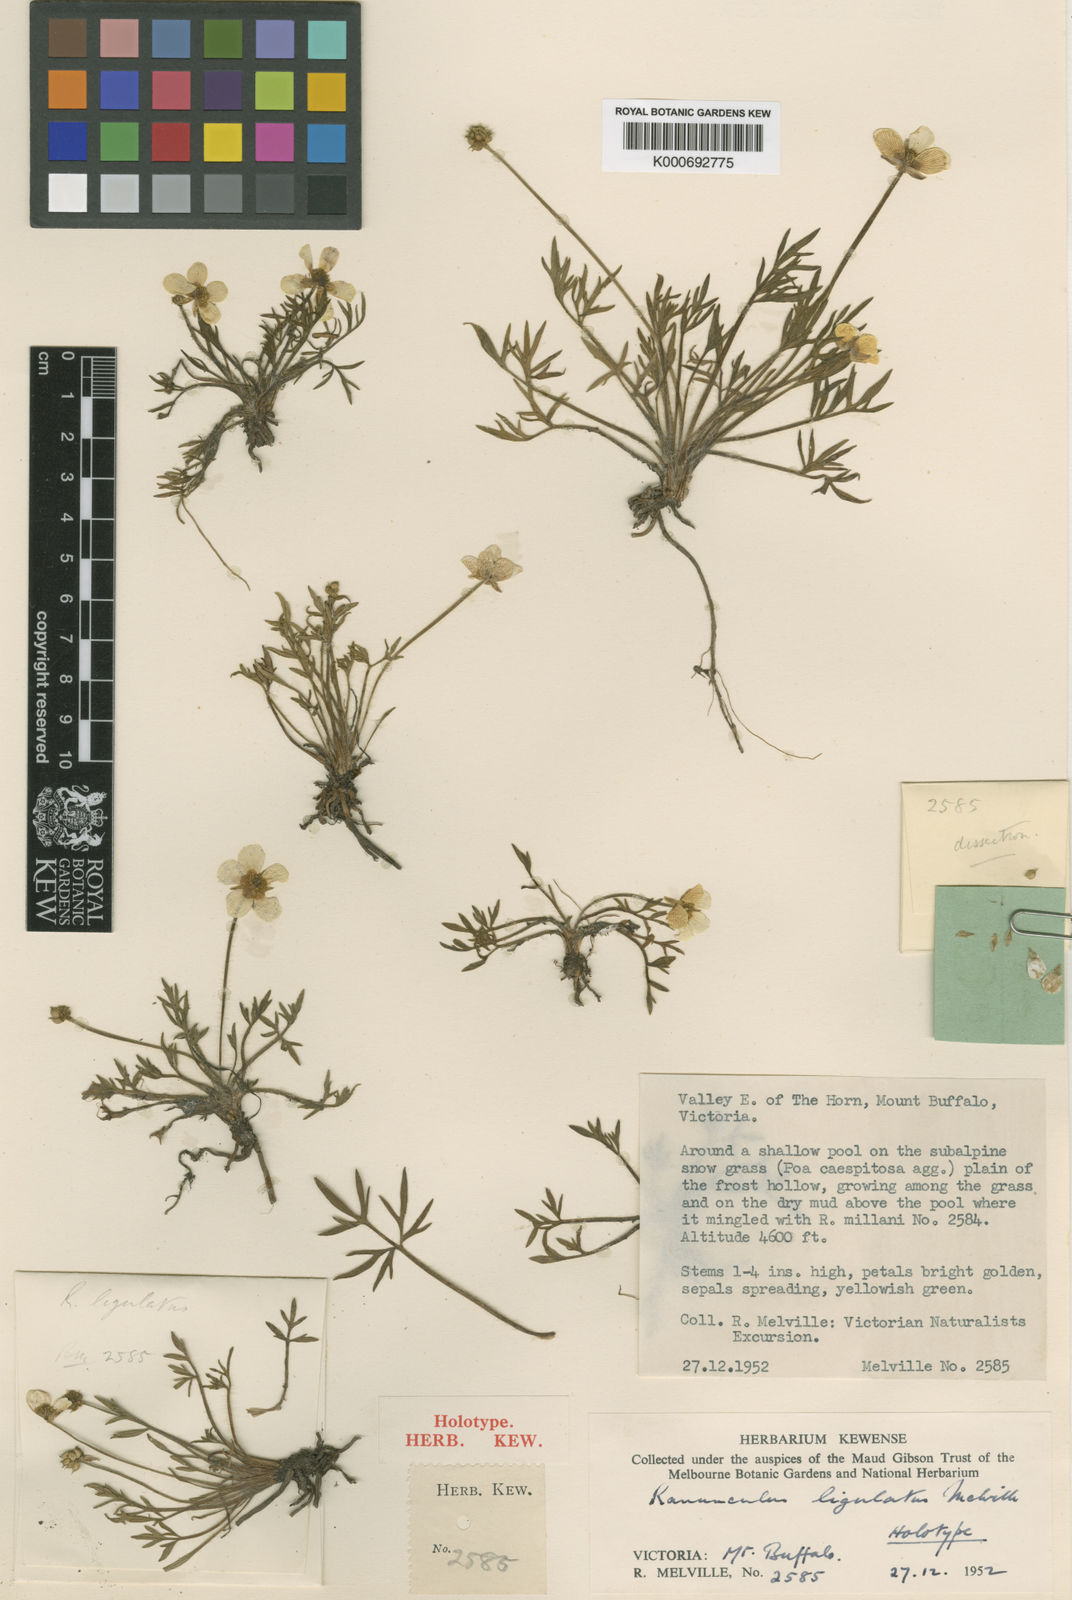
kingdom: Plantae
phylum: Tracheophyta
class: Magnoliopsida
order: Ranunculales
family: Ranunculaceae
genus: Ranunculus
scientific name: Ranunculus ligulatus
